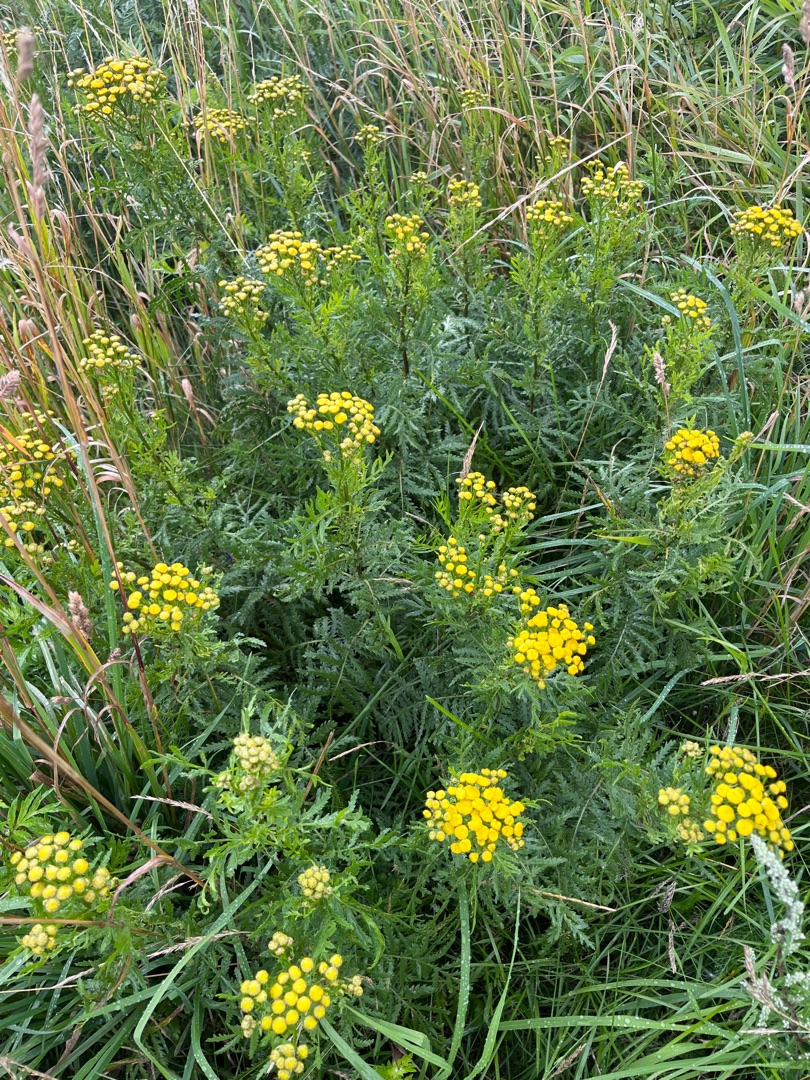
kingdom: Plantae
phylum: Tracheophyta
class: Magnoliopsida
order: Asterales
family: Asteraceae
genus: Tanacetum
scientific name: Tanacetum vulgare
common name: Rejnfan
